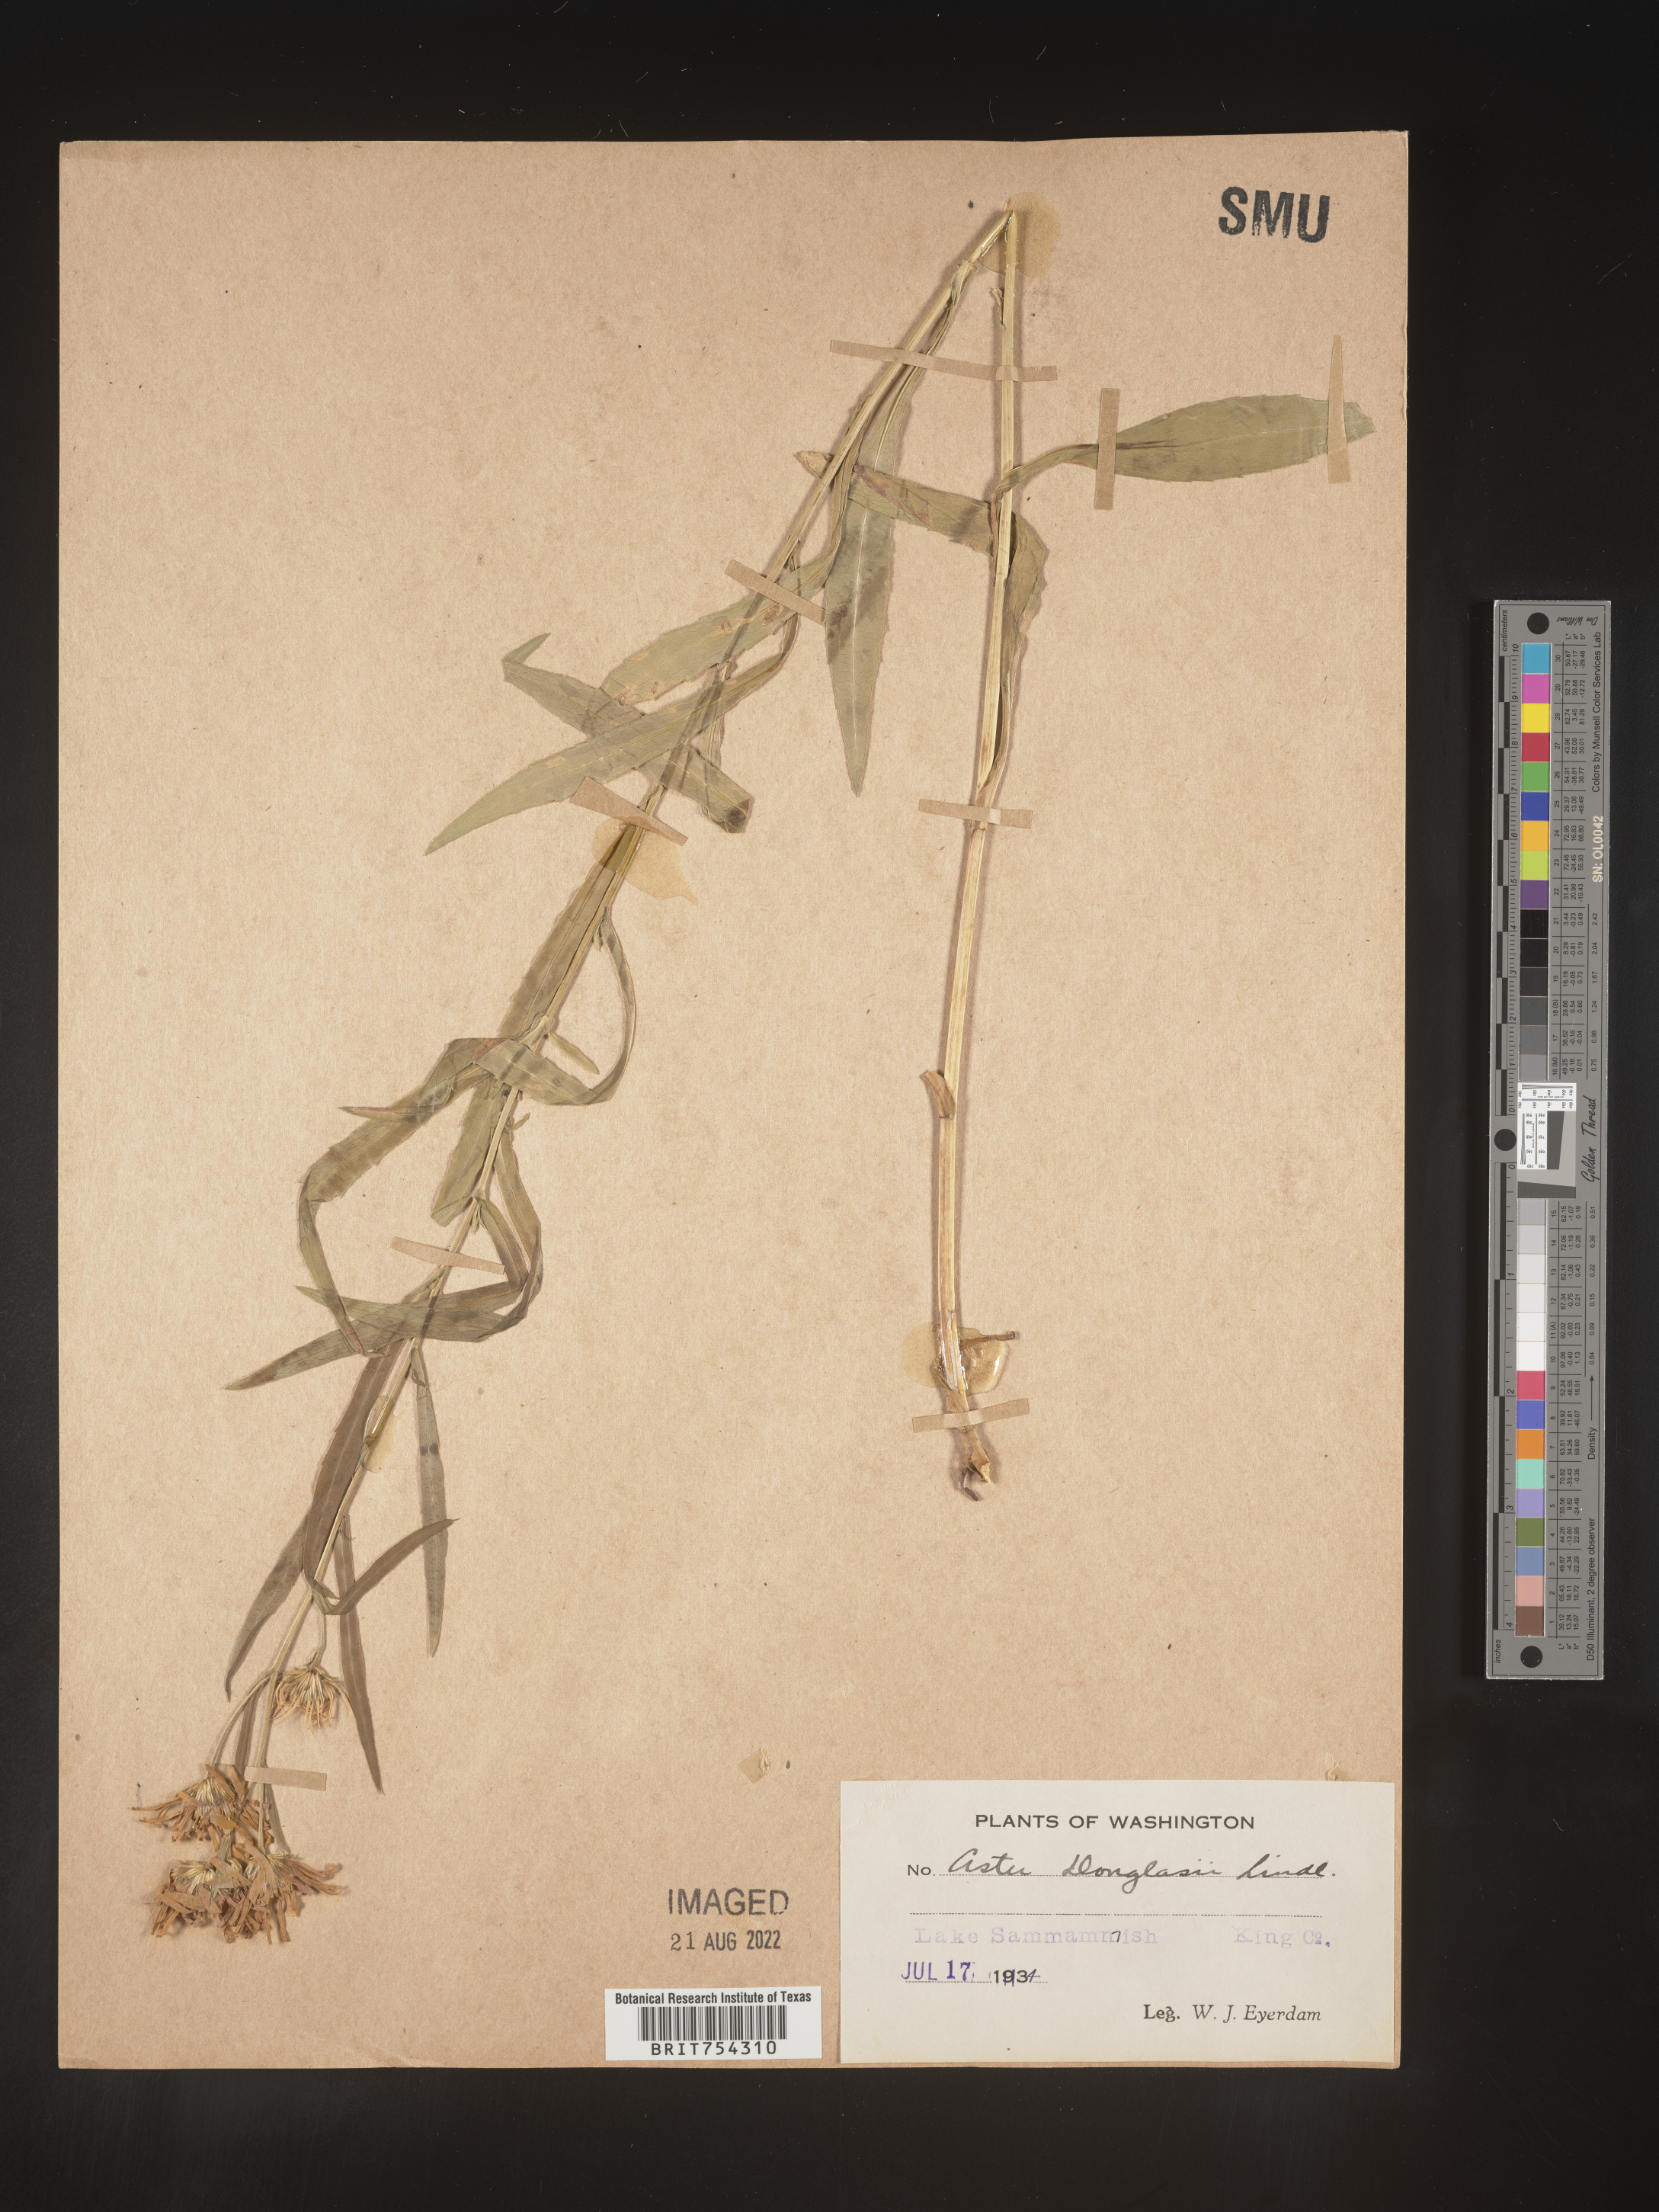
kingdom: Plantae
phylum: Tracheophyta
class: Magnoliopsida
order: Asterales
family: Asteraceae
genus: Symphyotrichum
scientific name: Symphyotrichum subspicatum
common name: Douglas' aster
